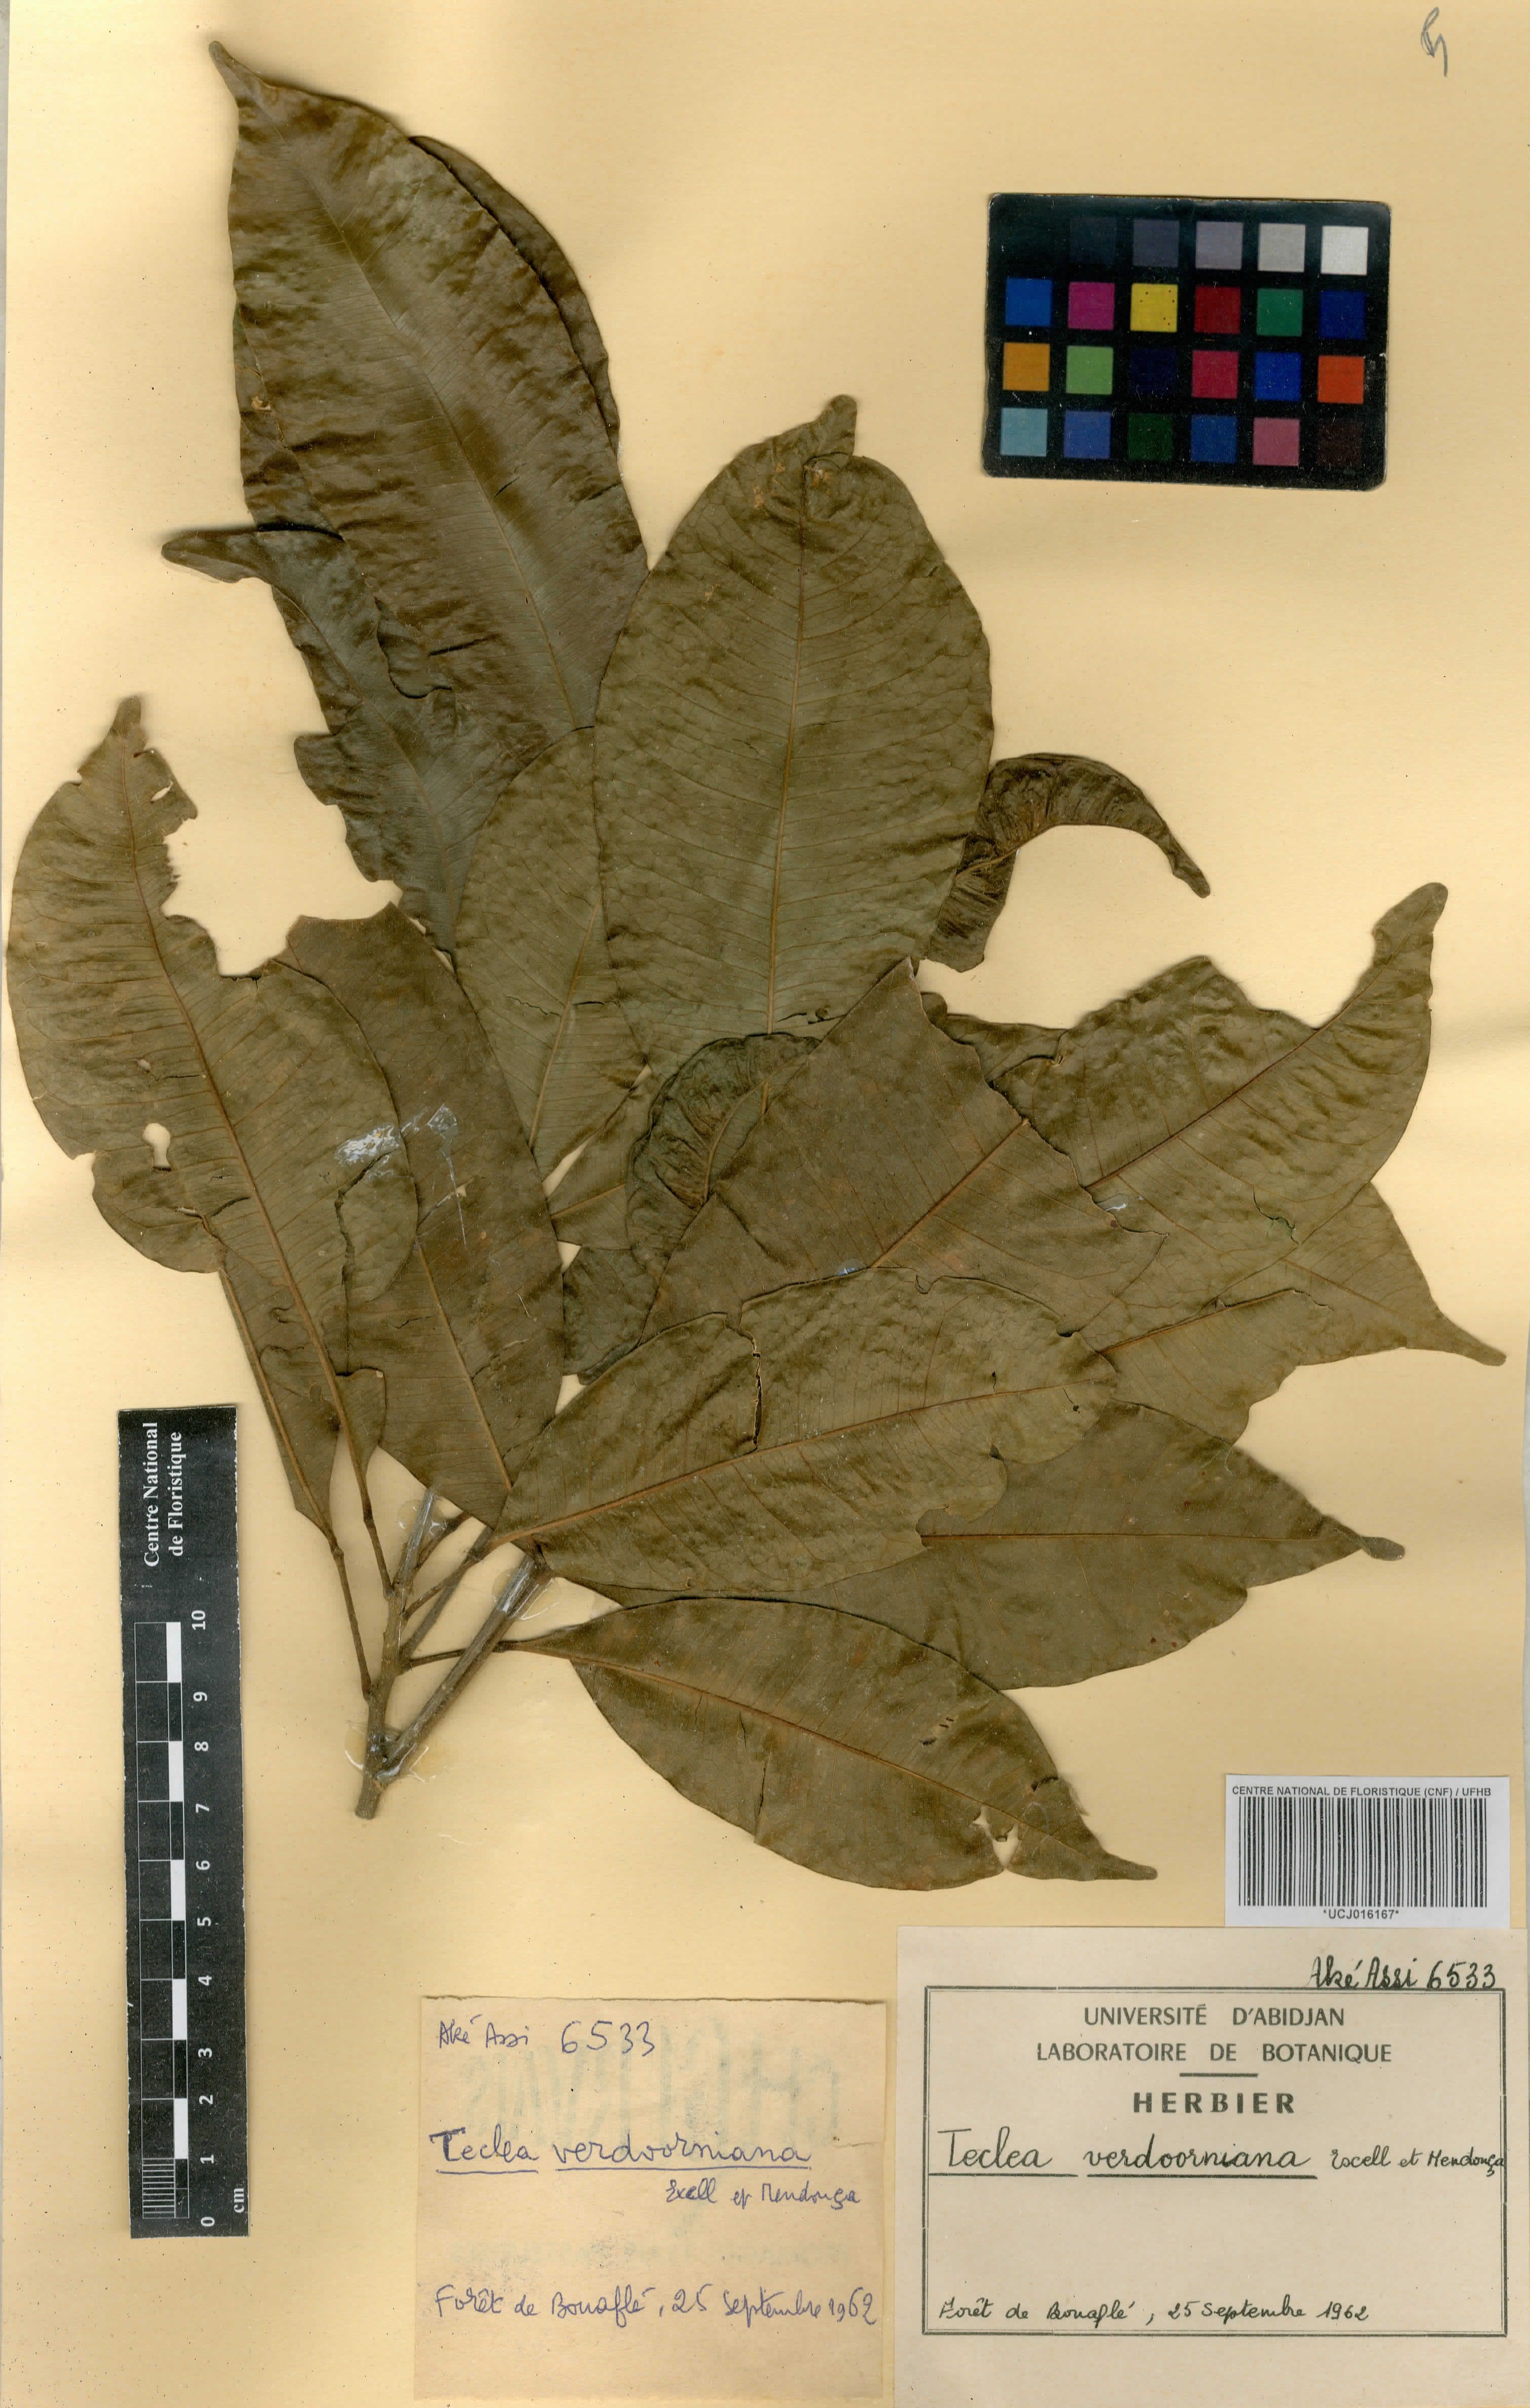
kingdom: Plantae
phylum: Tracheophyta
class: Magnoliopsida
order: Sapindales
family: Rutaceae
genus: Vepris
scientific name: Vepris verdoorniana
